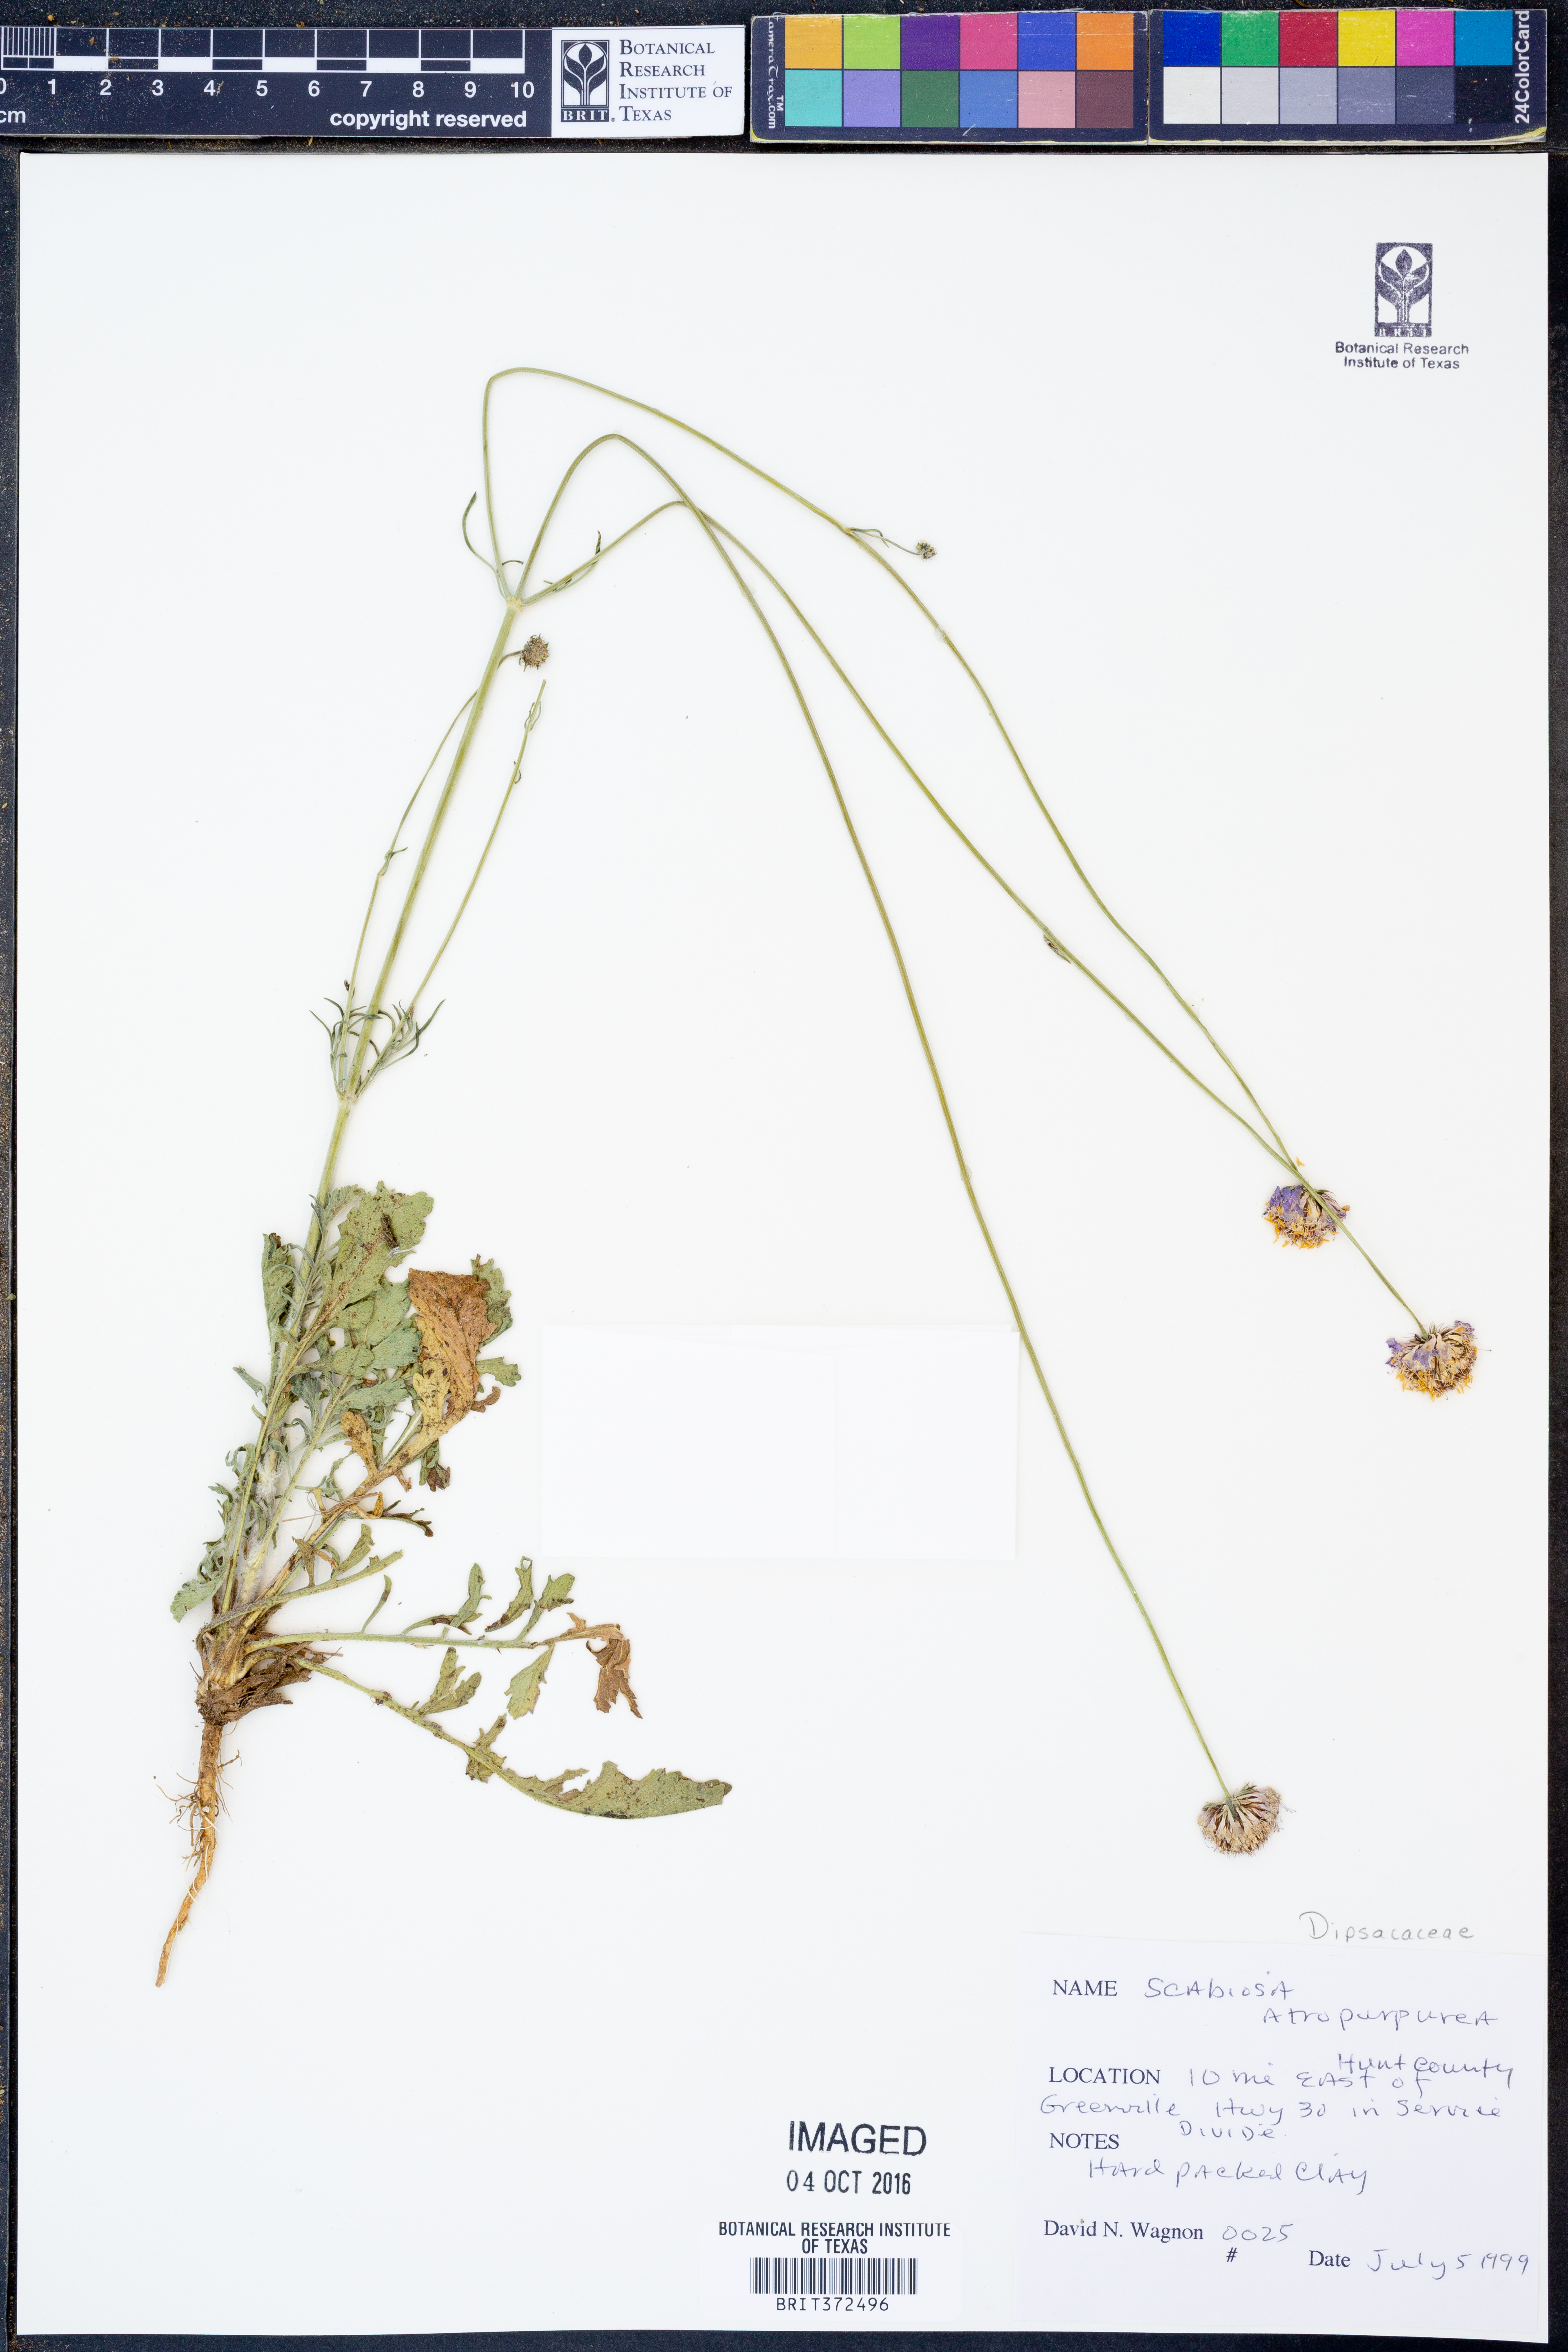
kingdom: Plantae
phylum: Tracheophyta
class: Magnoliopsida
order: Dipsacales
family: Caprifoliaceae
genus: Sixalix
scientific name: Sixalix atropurpurea
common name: Sweet scabious
